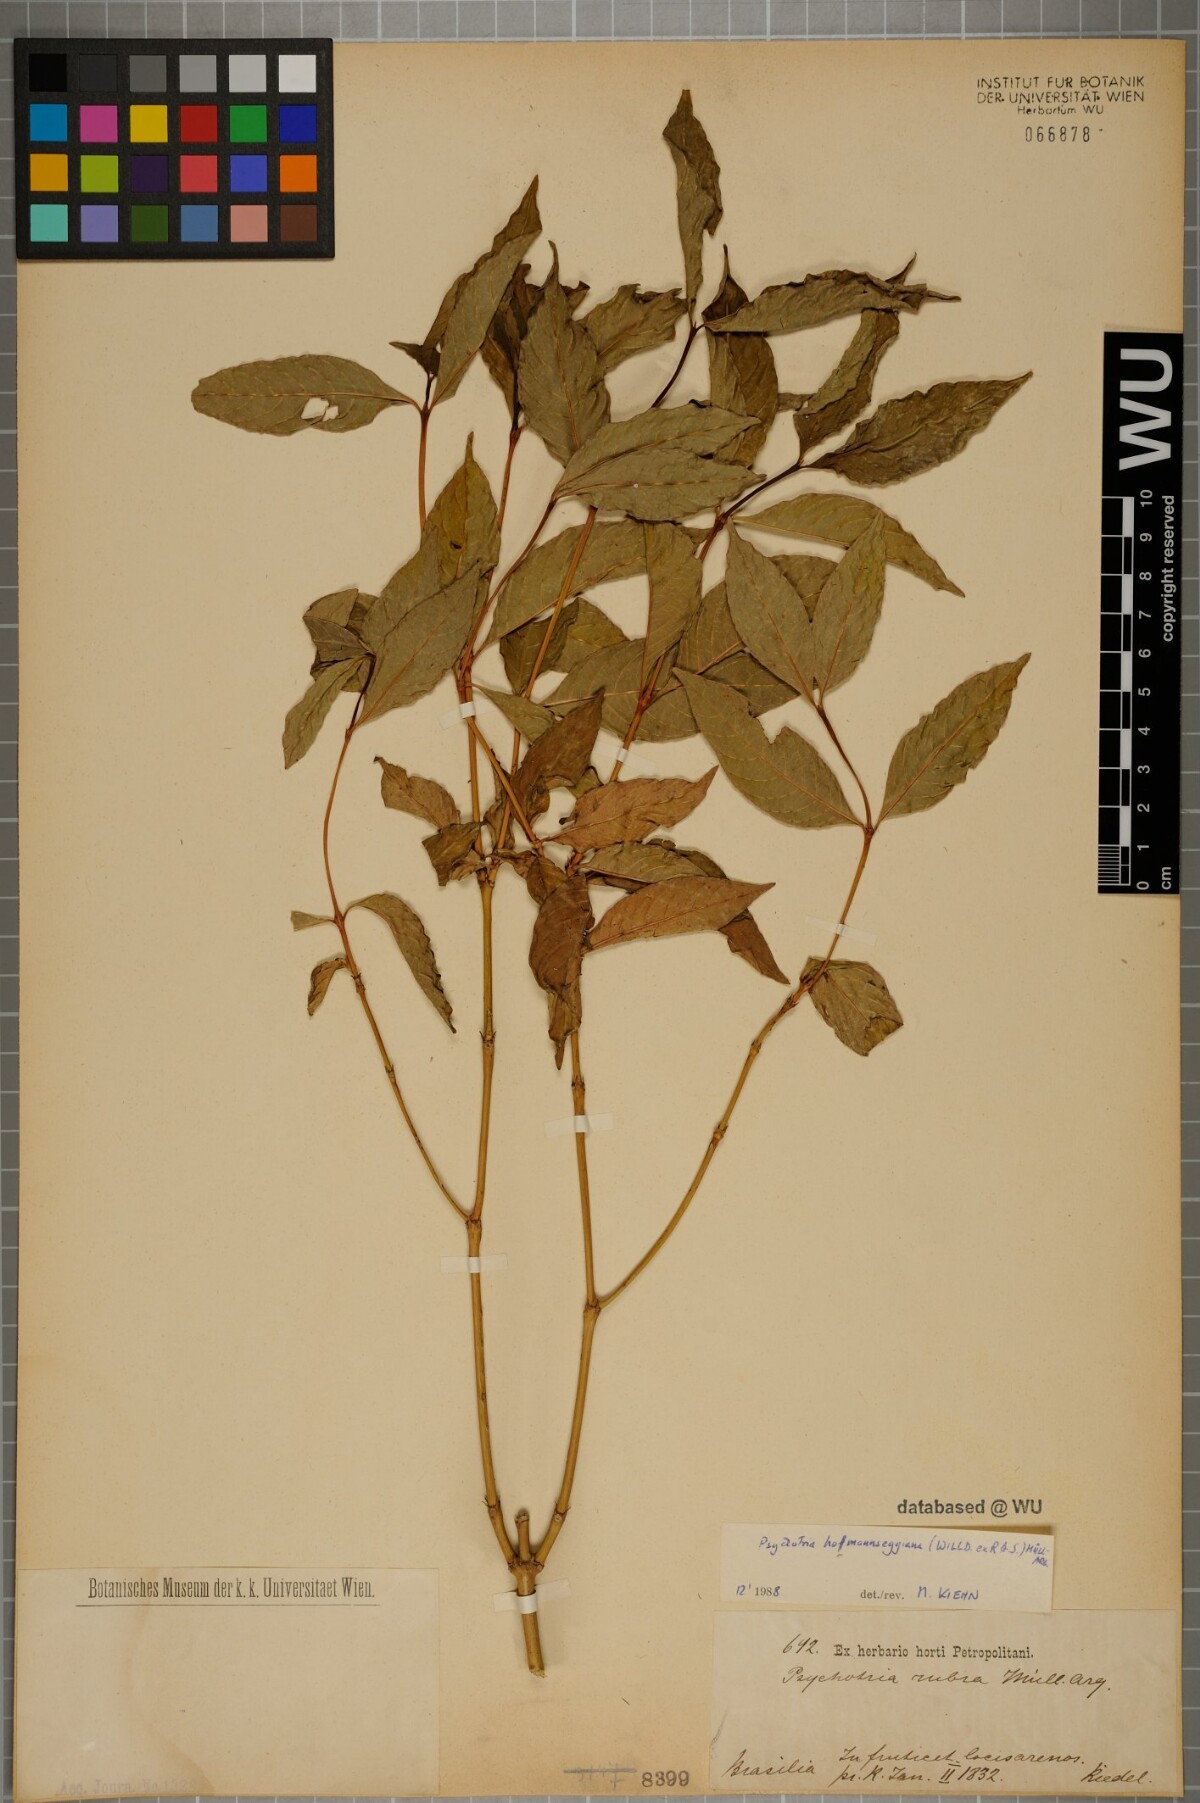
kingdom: Plantae
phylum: Tracheophyta
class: Magnoliopsida
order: Gentianales
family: Rubiaceae
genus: Palicourea
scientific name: Palicourea hoffmannseggiana
